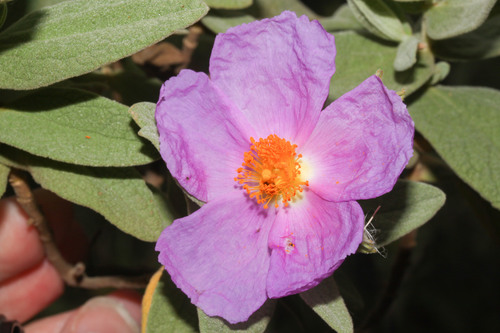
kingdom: Plantae
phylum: Tracheophyta
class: Magnoliopsida
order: Malvales
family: Cistaceae
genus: Cistus
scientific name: Cistus albidus
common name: White-leaf rock-rose
